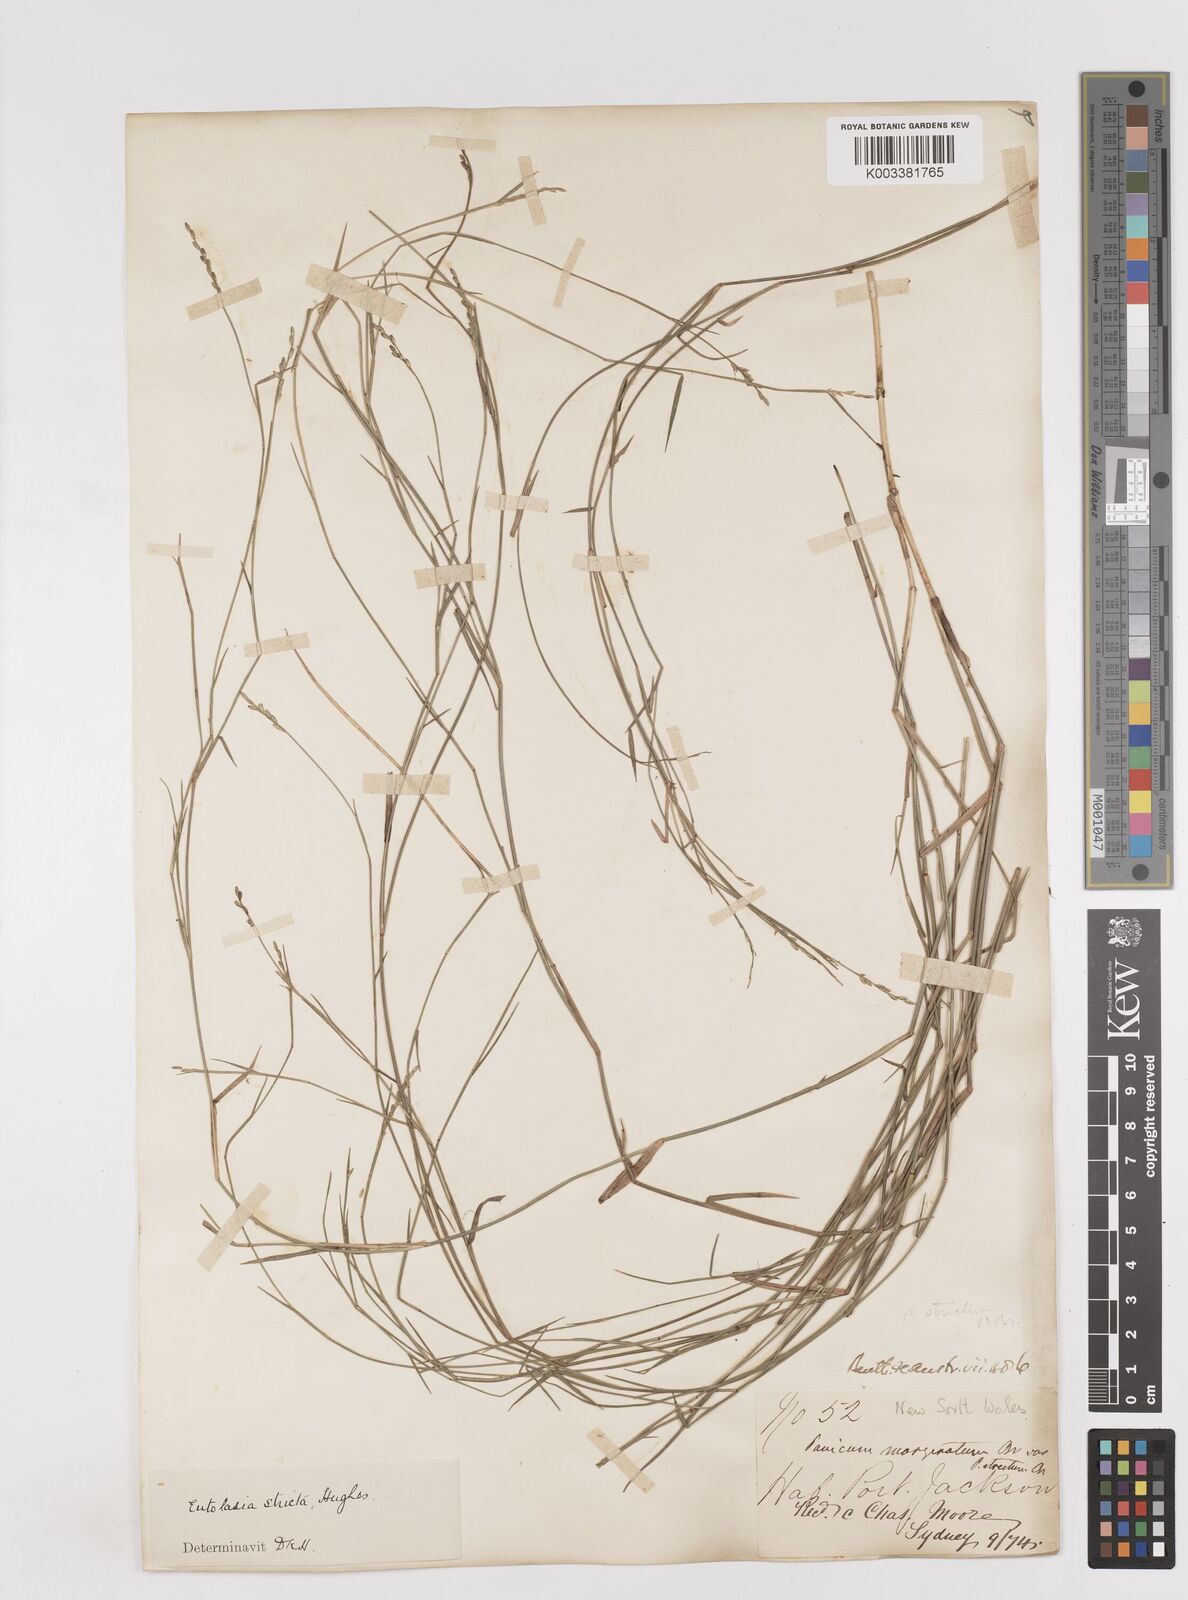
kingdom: Plantae
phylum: Tracheophyta
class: Liliopsida
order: Poales
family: Poaceae
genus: Entolasia
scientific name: Entolasia stricta
